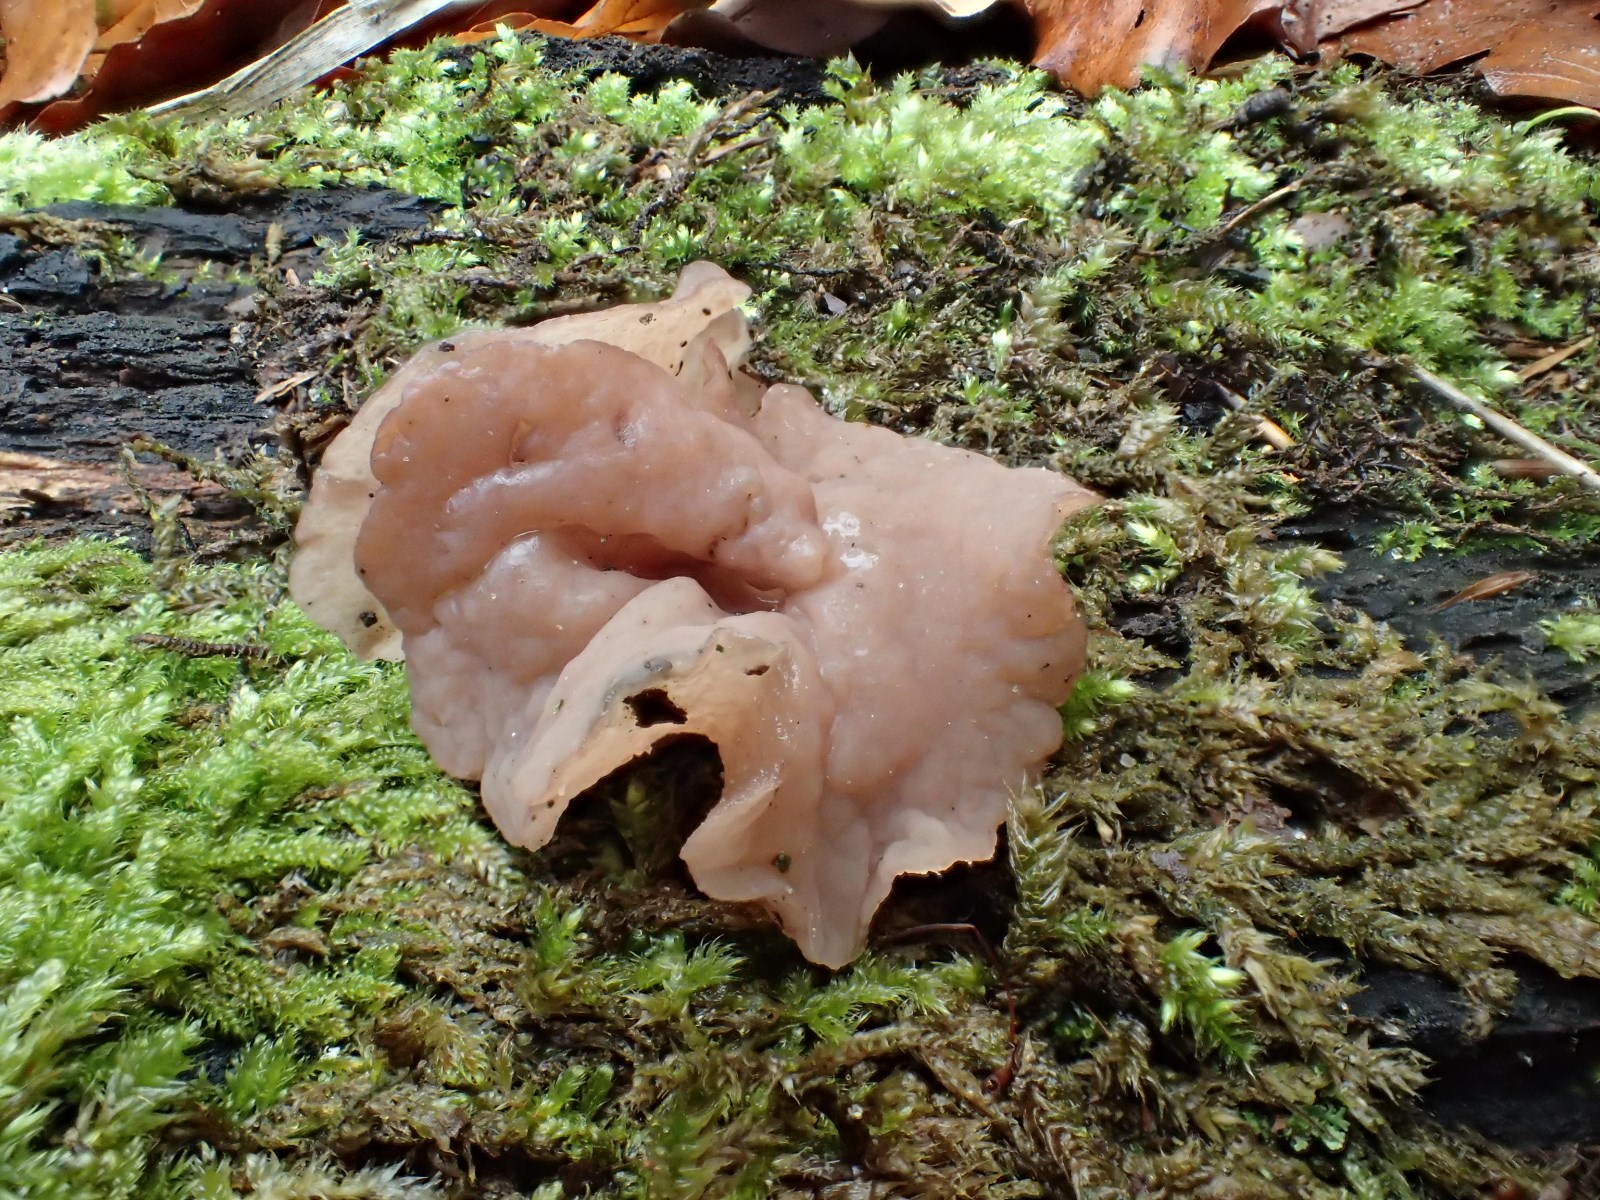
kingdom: Fungi
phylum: Ascomycota
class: Leotiomycetes
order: Helotiales
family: Gelatinodiscaceae
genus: Neobulgaria
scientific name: Neobulgaria pura
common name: bleg bævreskive
